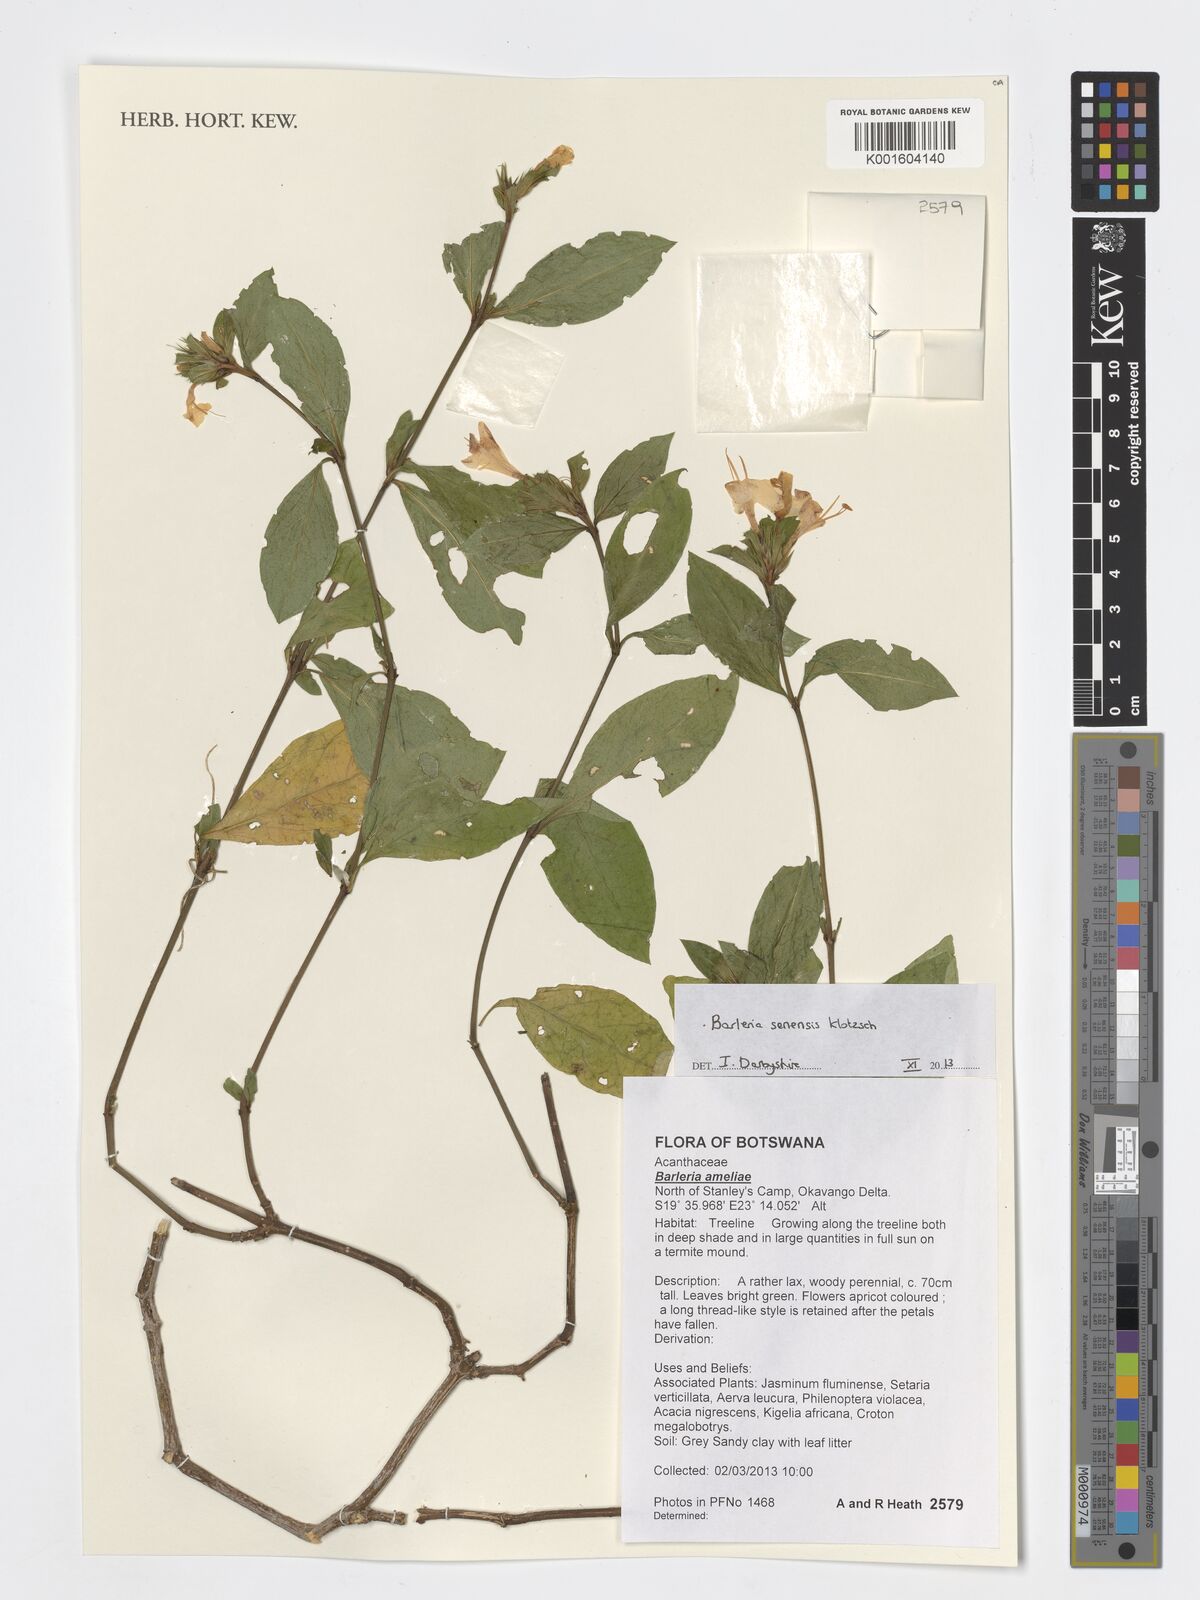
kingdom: Plantae
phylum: Tracheophyta
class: Magnoliopsida
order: Lamiales
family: Acanthaceae
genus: Barleria
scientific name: Barleria senensis
